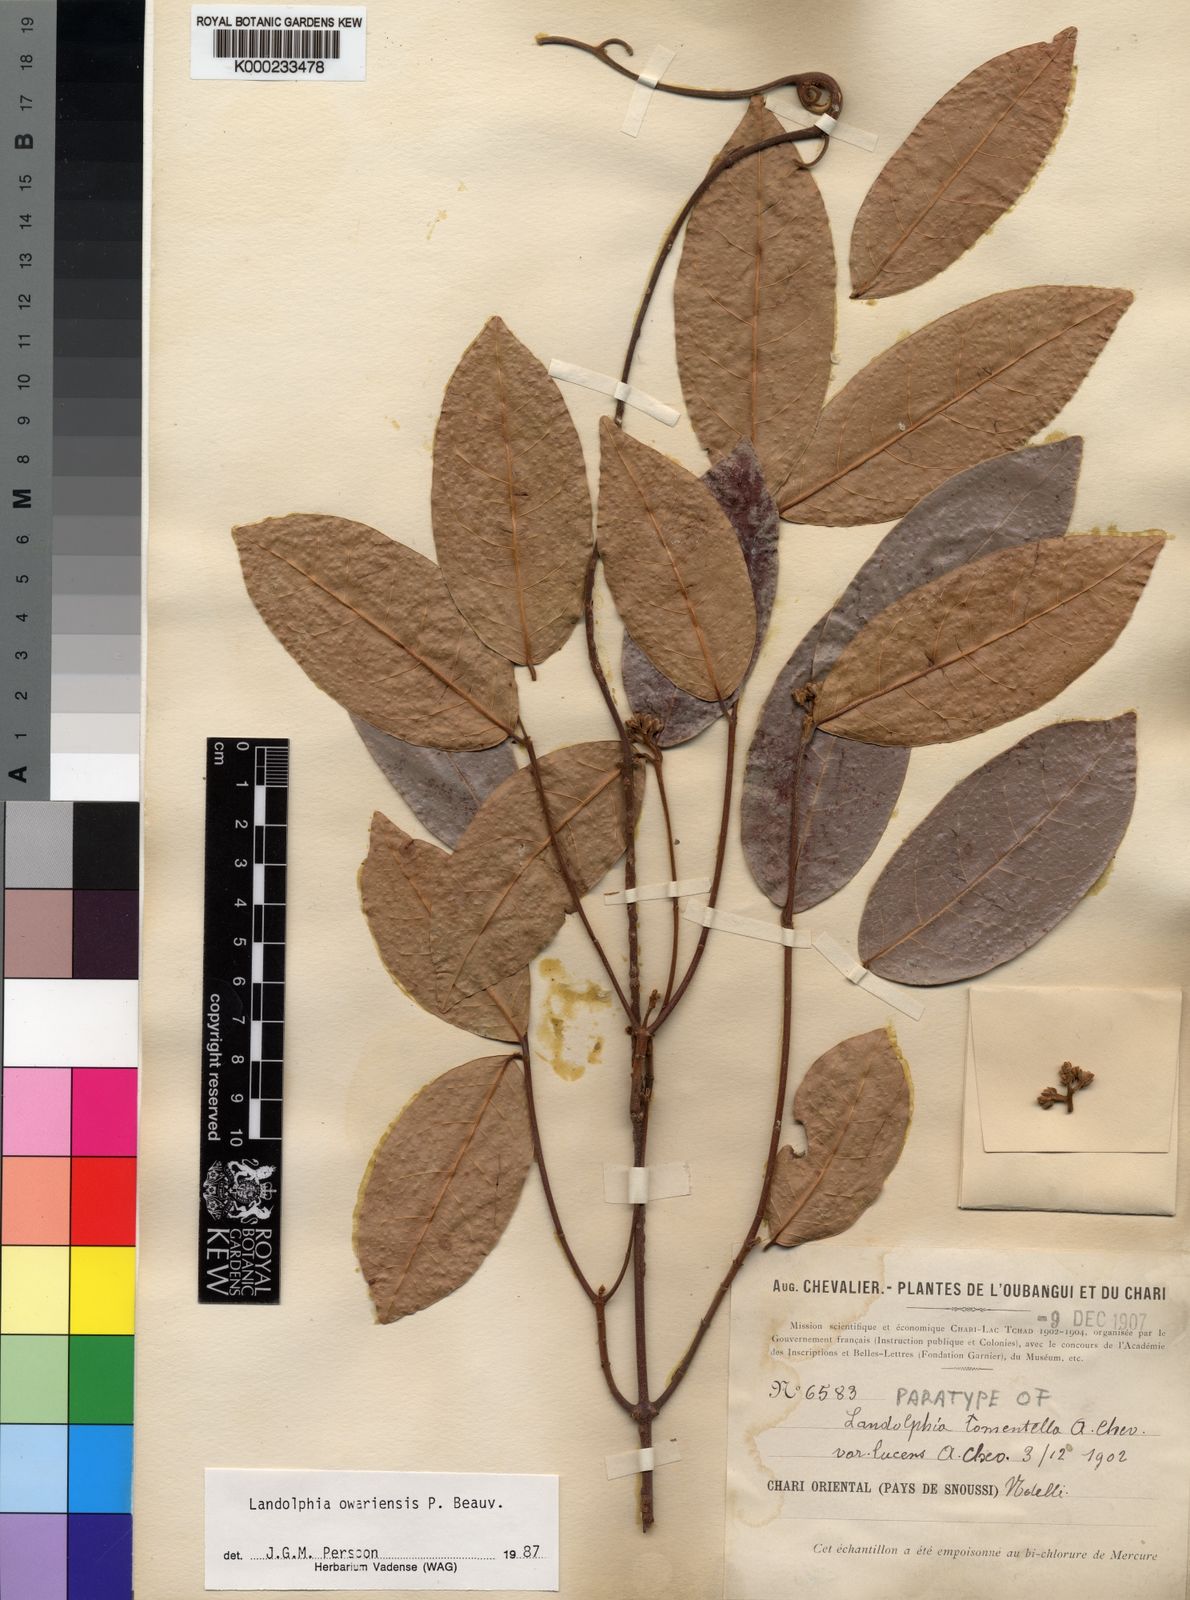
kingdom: Plantae
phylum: Tracheophyta
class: Magnoliopsida
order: Gentianales
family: Apocynaceae
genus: Landolphia
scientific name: Landolphia owariensis
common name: White-ball-rubber
